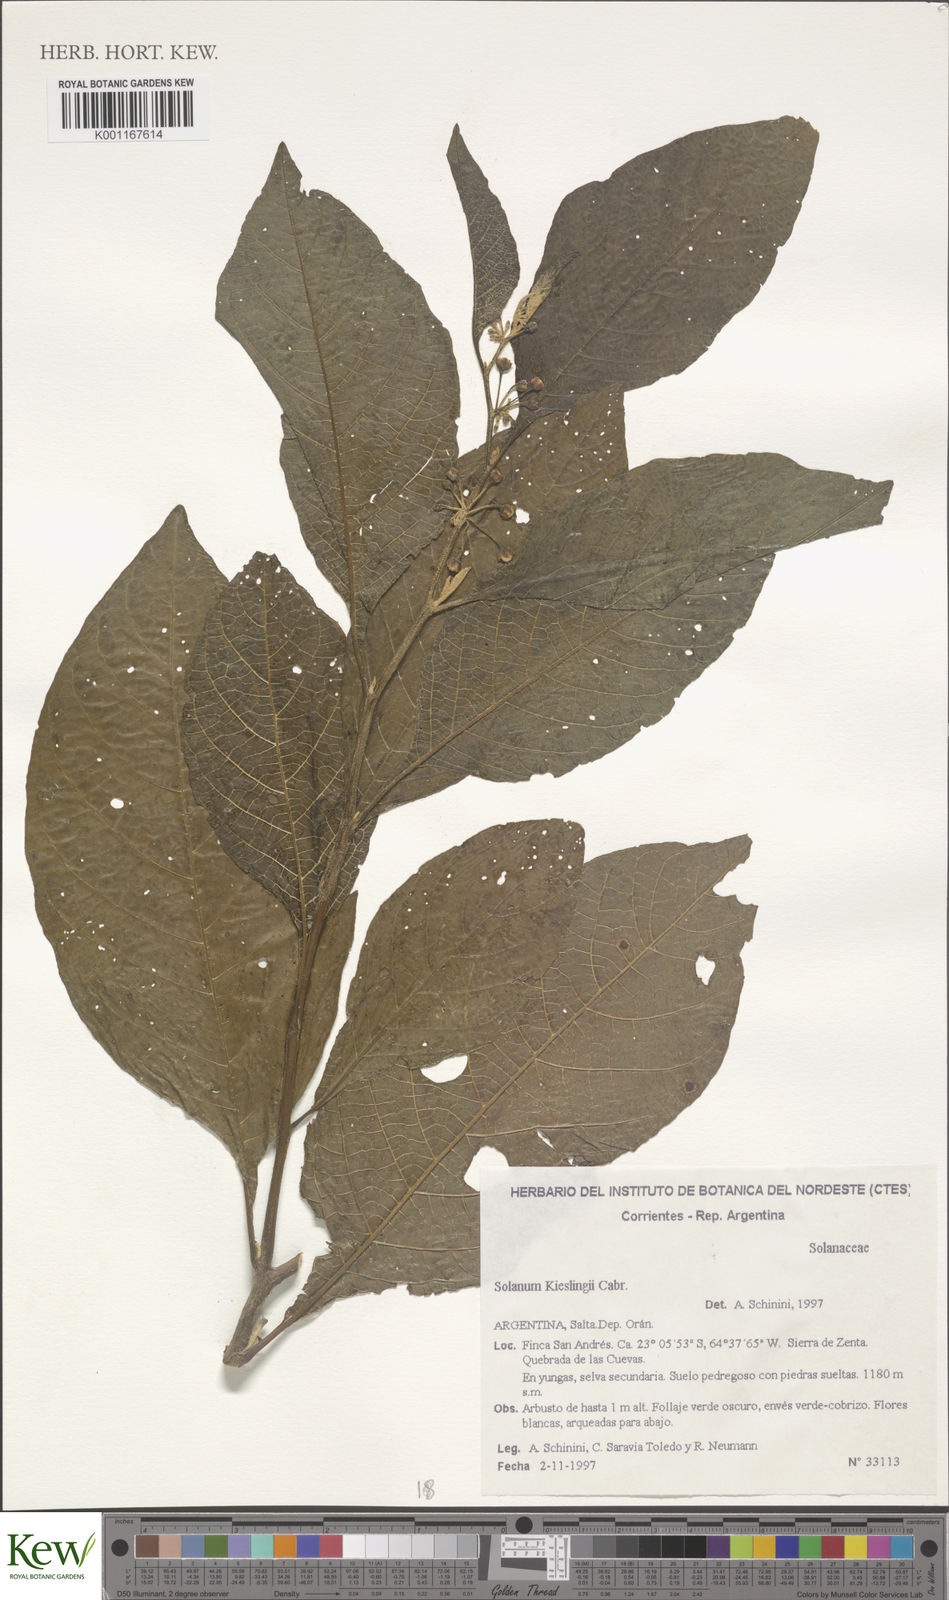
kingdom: Plantae
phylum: Tracheophyta
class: Magnoliopsida
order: Solanales
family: Solanaceae
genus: Solanum
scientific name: Solanum maturecalvans
